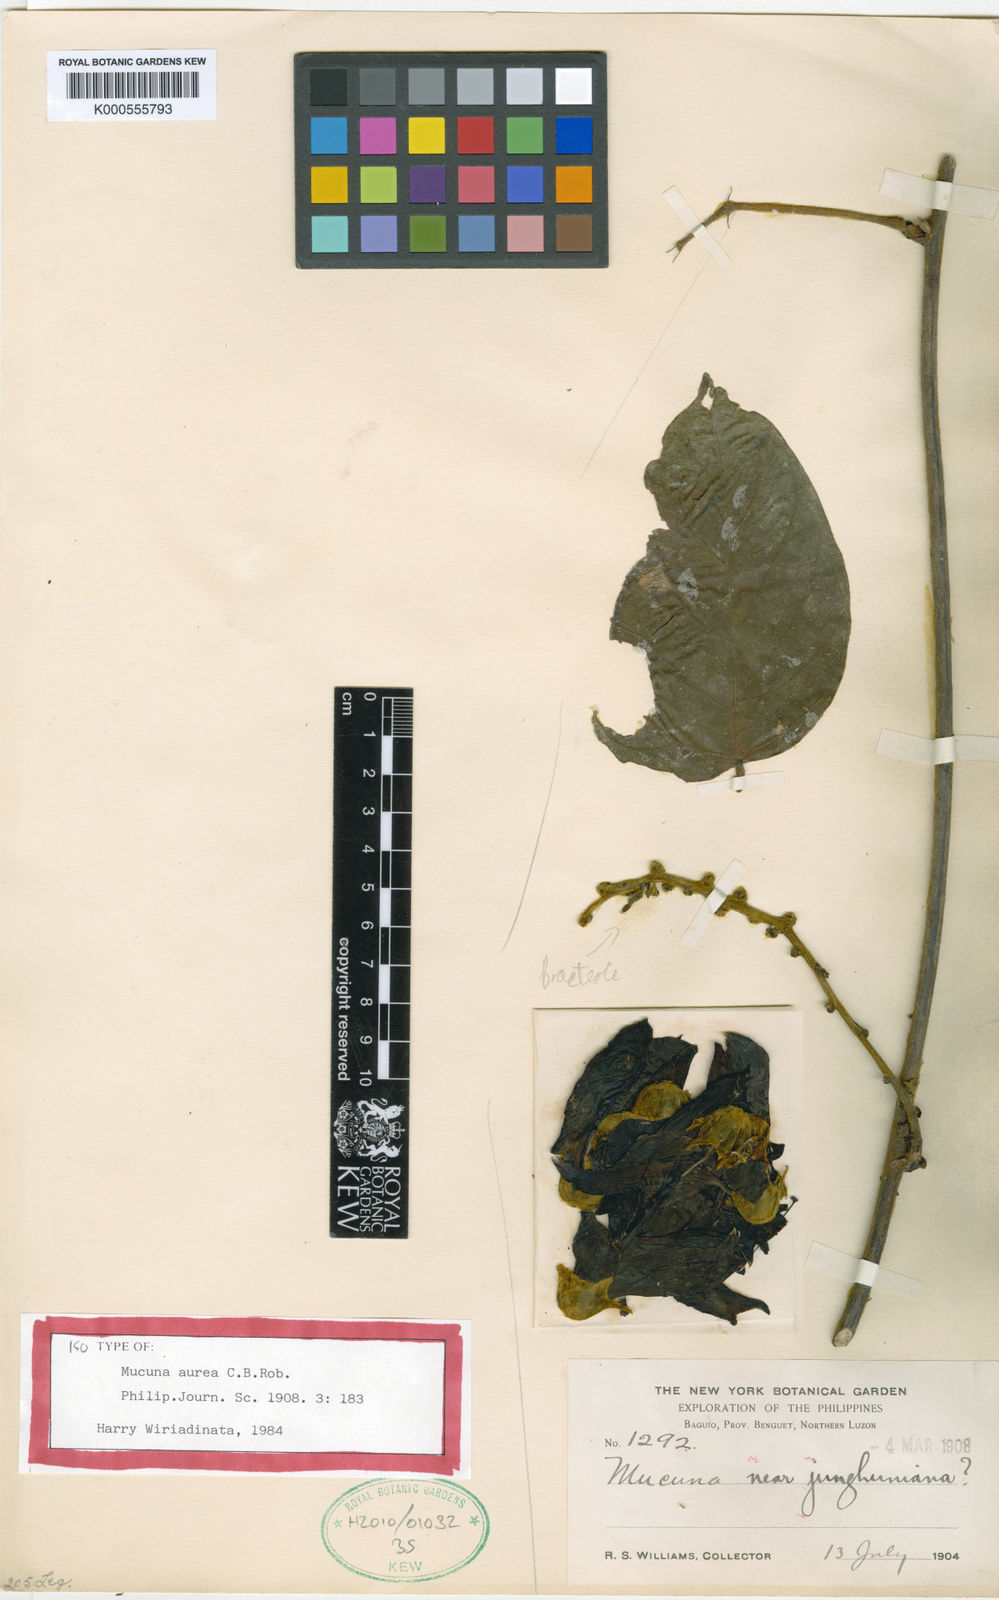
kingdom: Plantae
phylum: Tracheophyta
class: Magnoliopsida
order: Fabales
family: Fabaceae
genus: Mucuna
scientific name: Mucuna aurea
